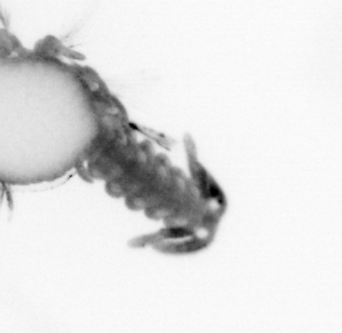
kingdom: Animalia
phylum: Annelida
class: Polychaeta
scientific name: Polychaeta
